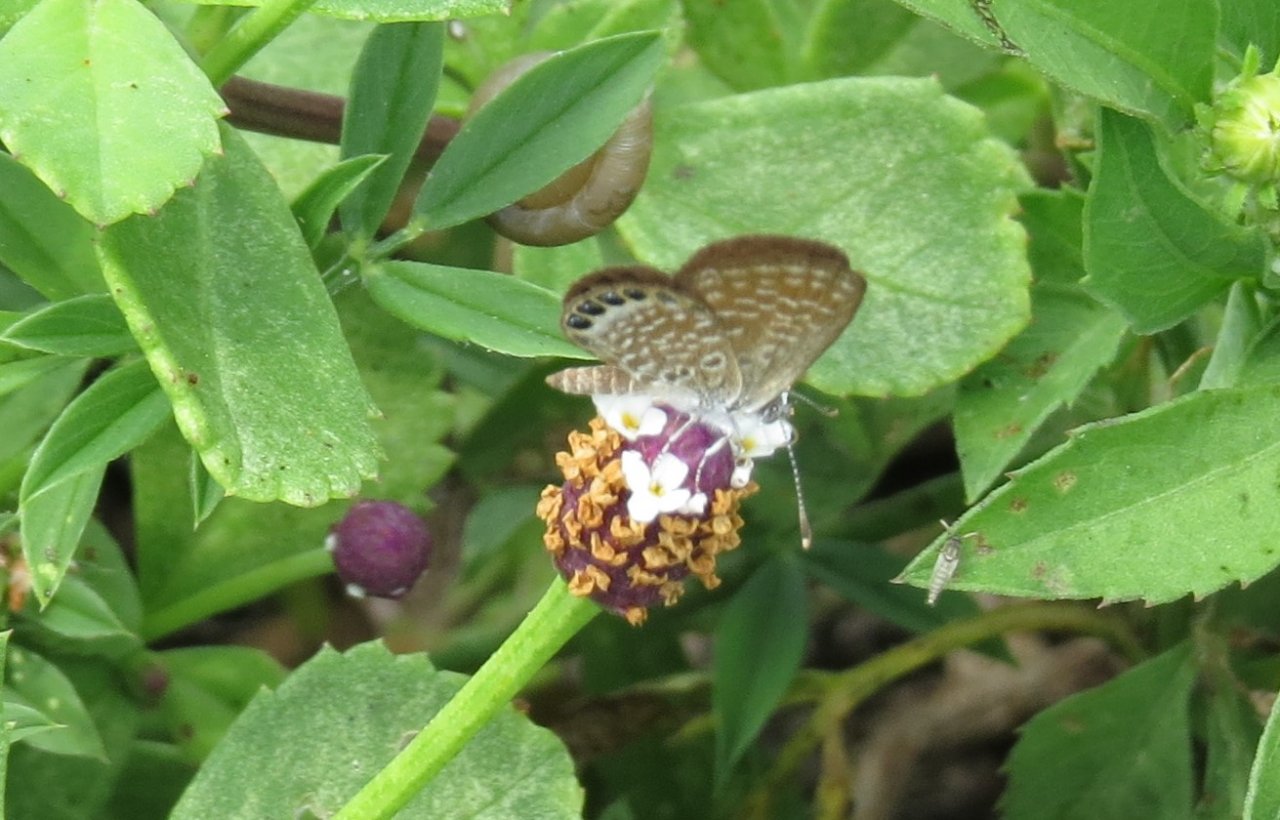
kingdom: Animalia
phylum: Arthropoda
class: Insecta
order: Lepidoptera
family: Lycaenidae
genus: Brephidium
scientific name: Brephidium isophthalma
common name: Eastern Pygmy-Blue
